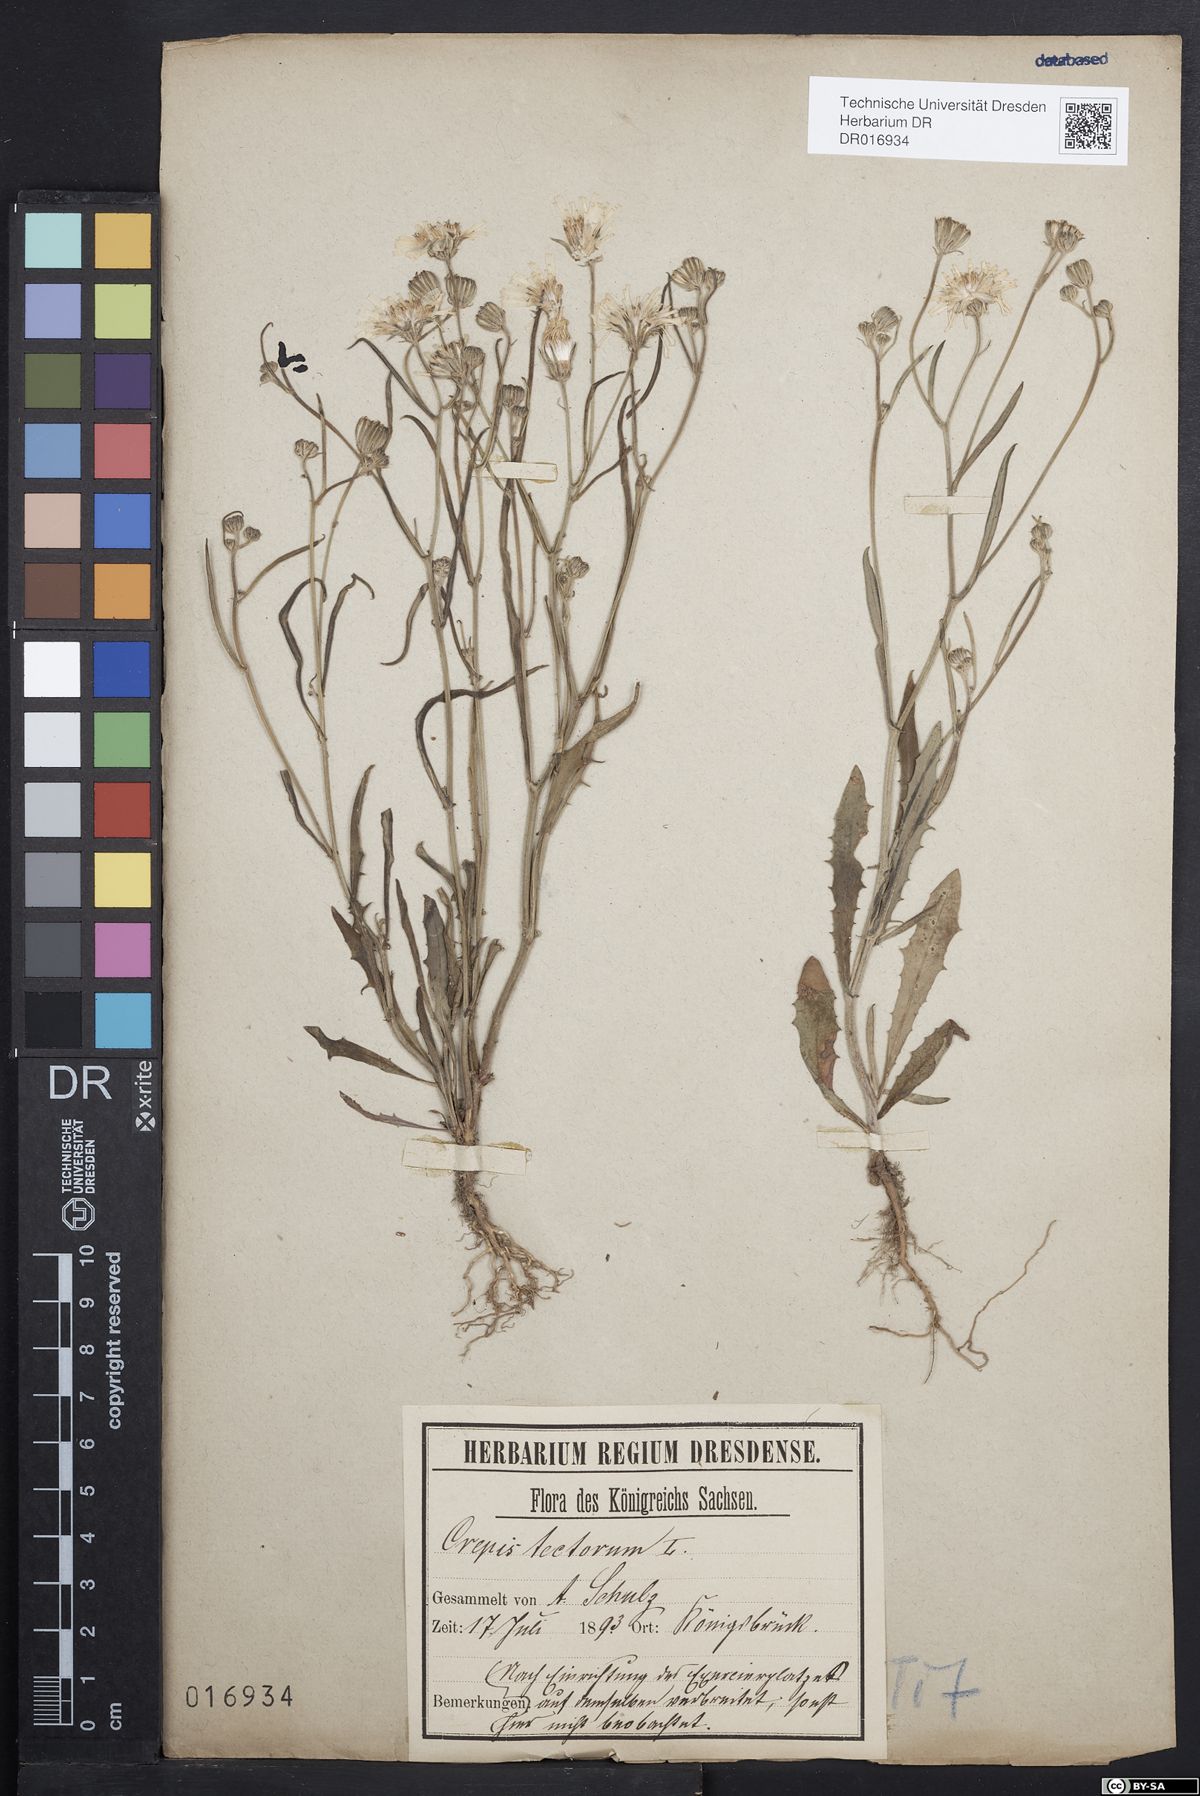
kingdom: Plantae
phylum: Tracheophyta
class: Magnoliopsida
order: Asterales
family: Asteraceae
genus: Crepis
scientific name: Crepis tectorum
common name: Narrow-leaved hawk's-beard
